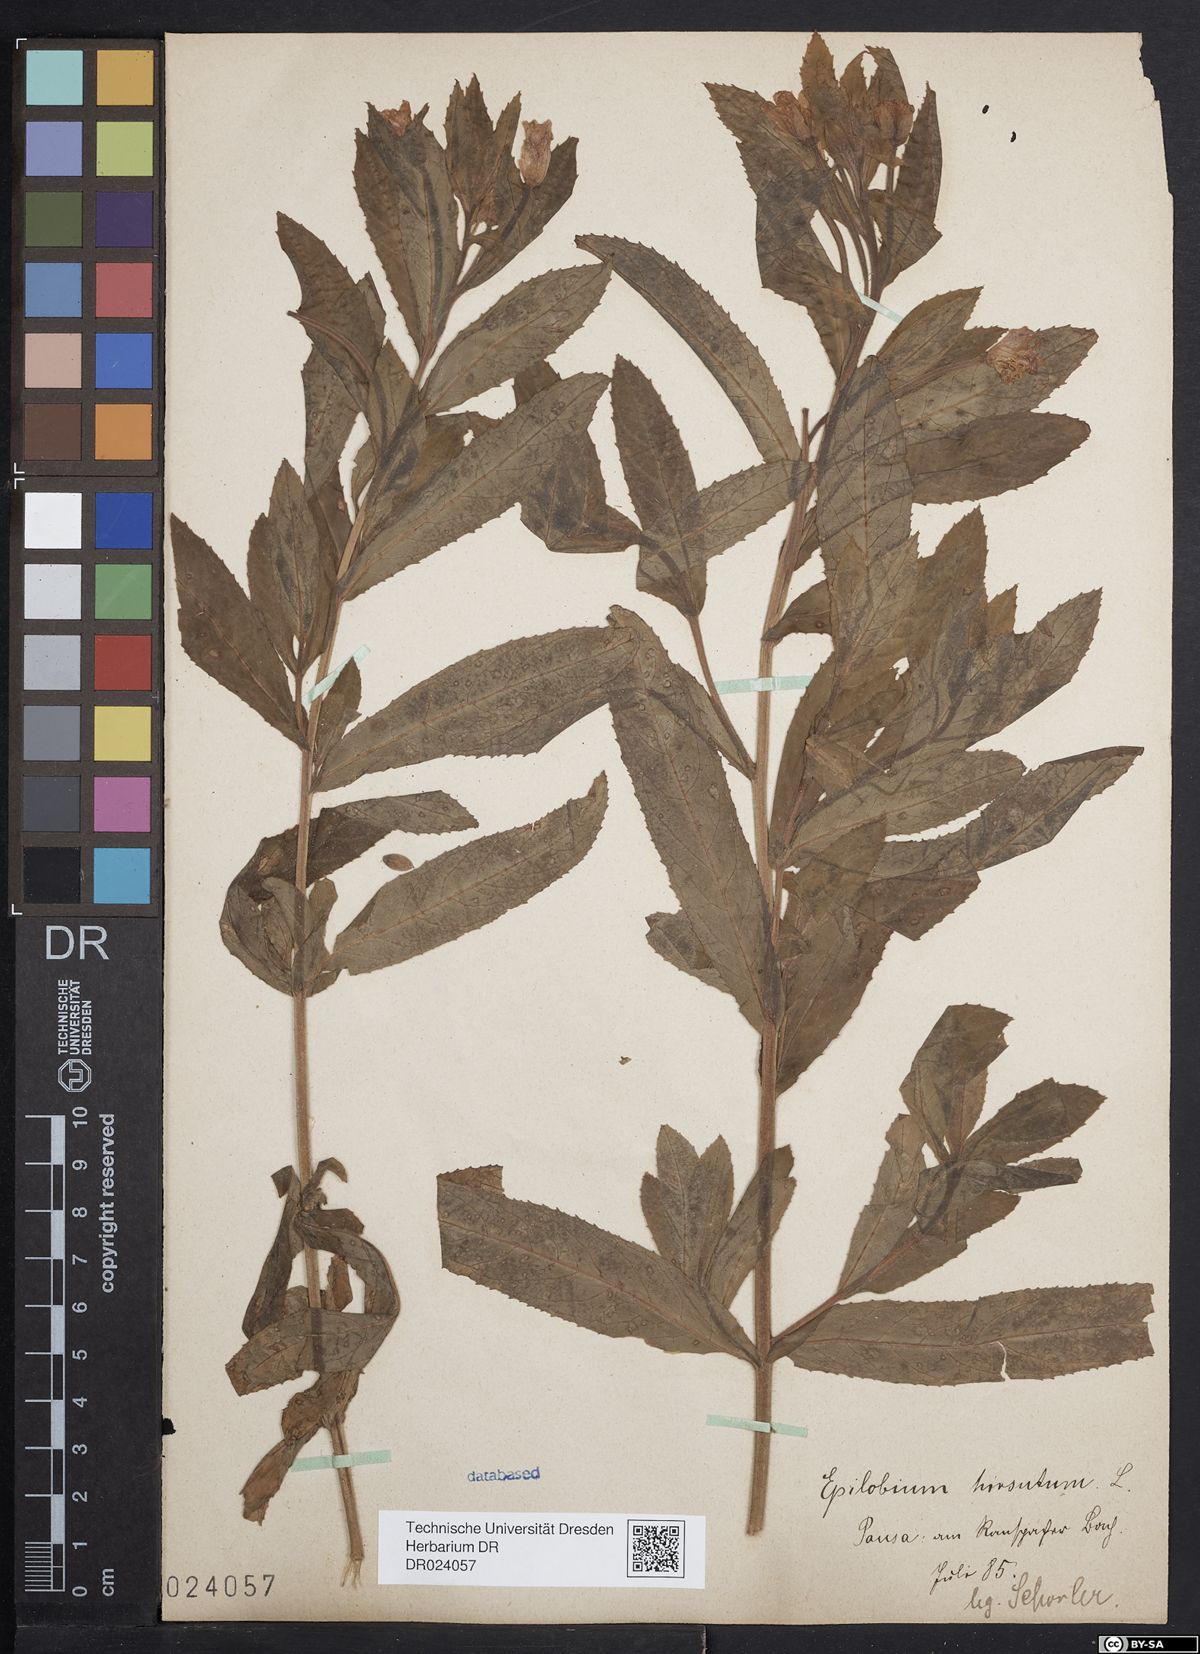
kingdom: Plantae
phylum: Tracheophyta
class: Magnoliopsida
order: Myrtales
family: Onagraceae
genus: Epilobium
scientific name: Epilobium hirsutum
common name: Great willowherb
